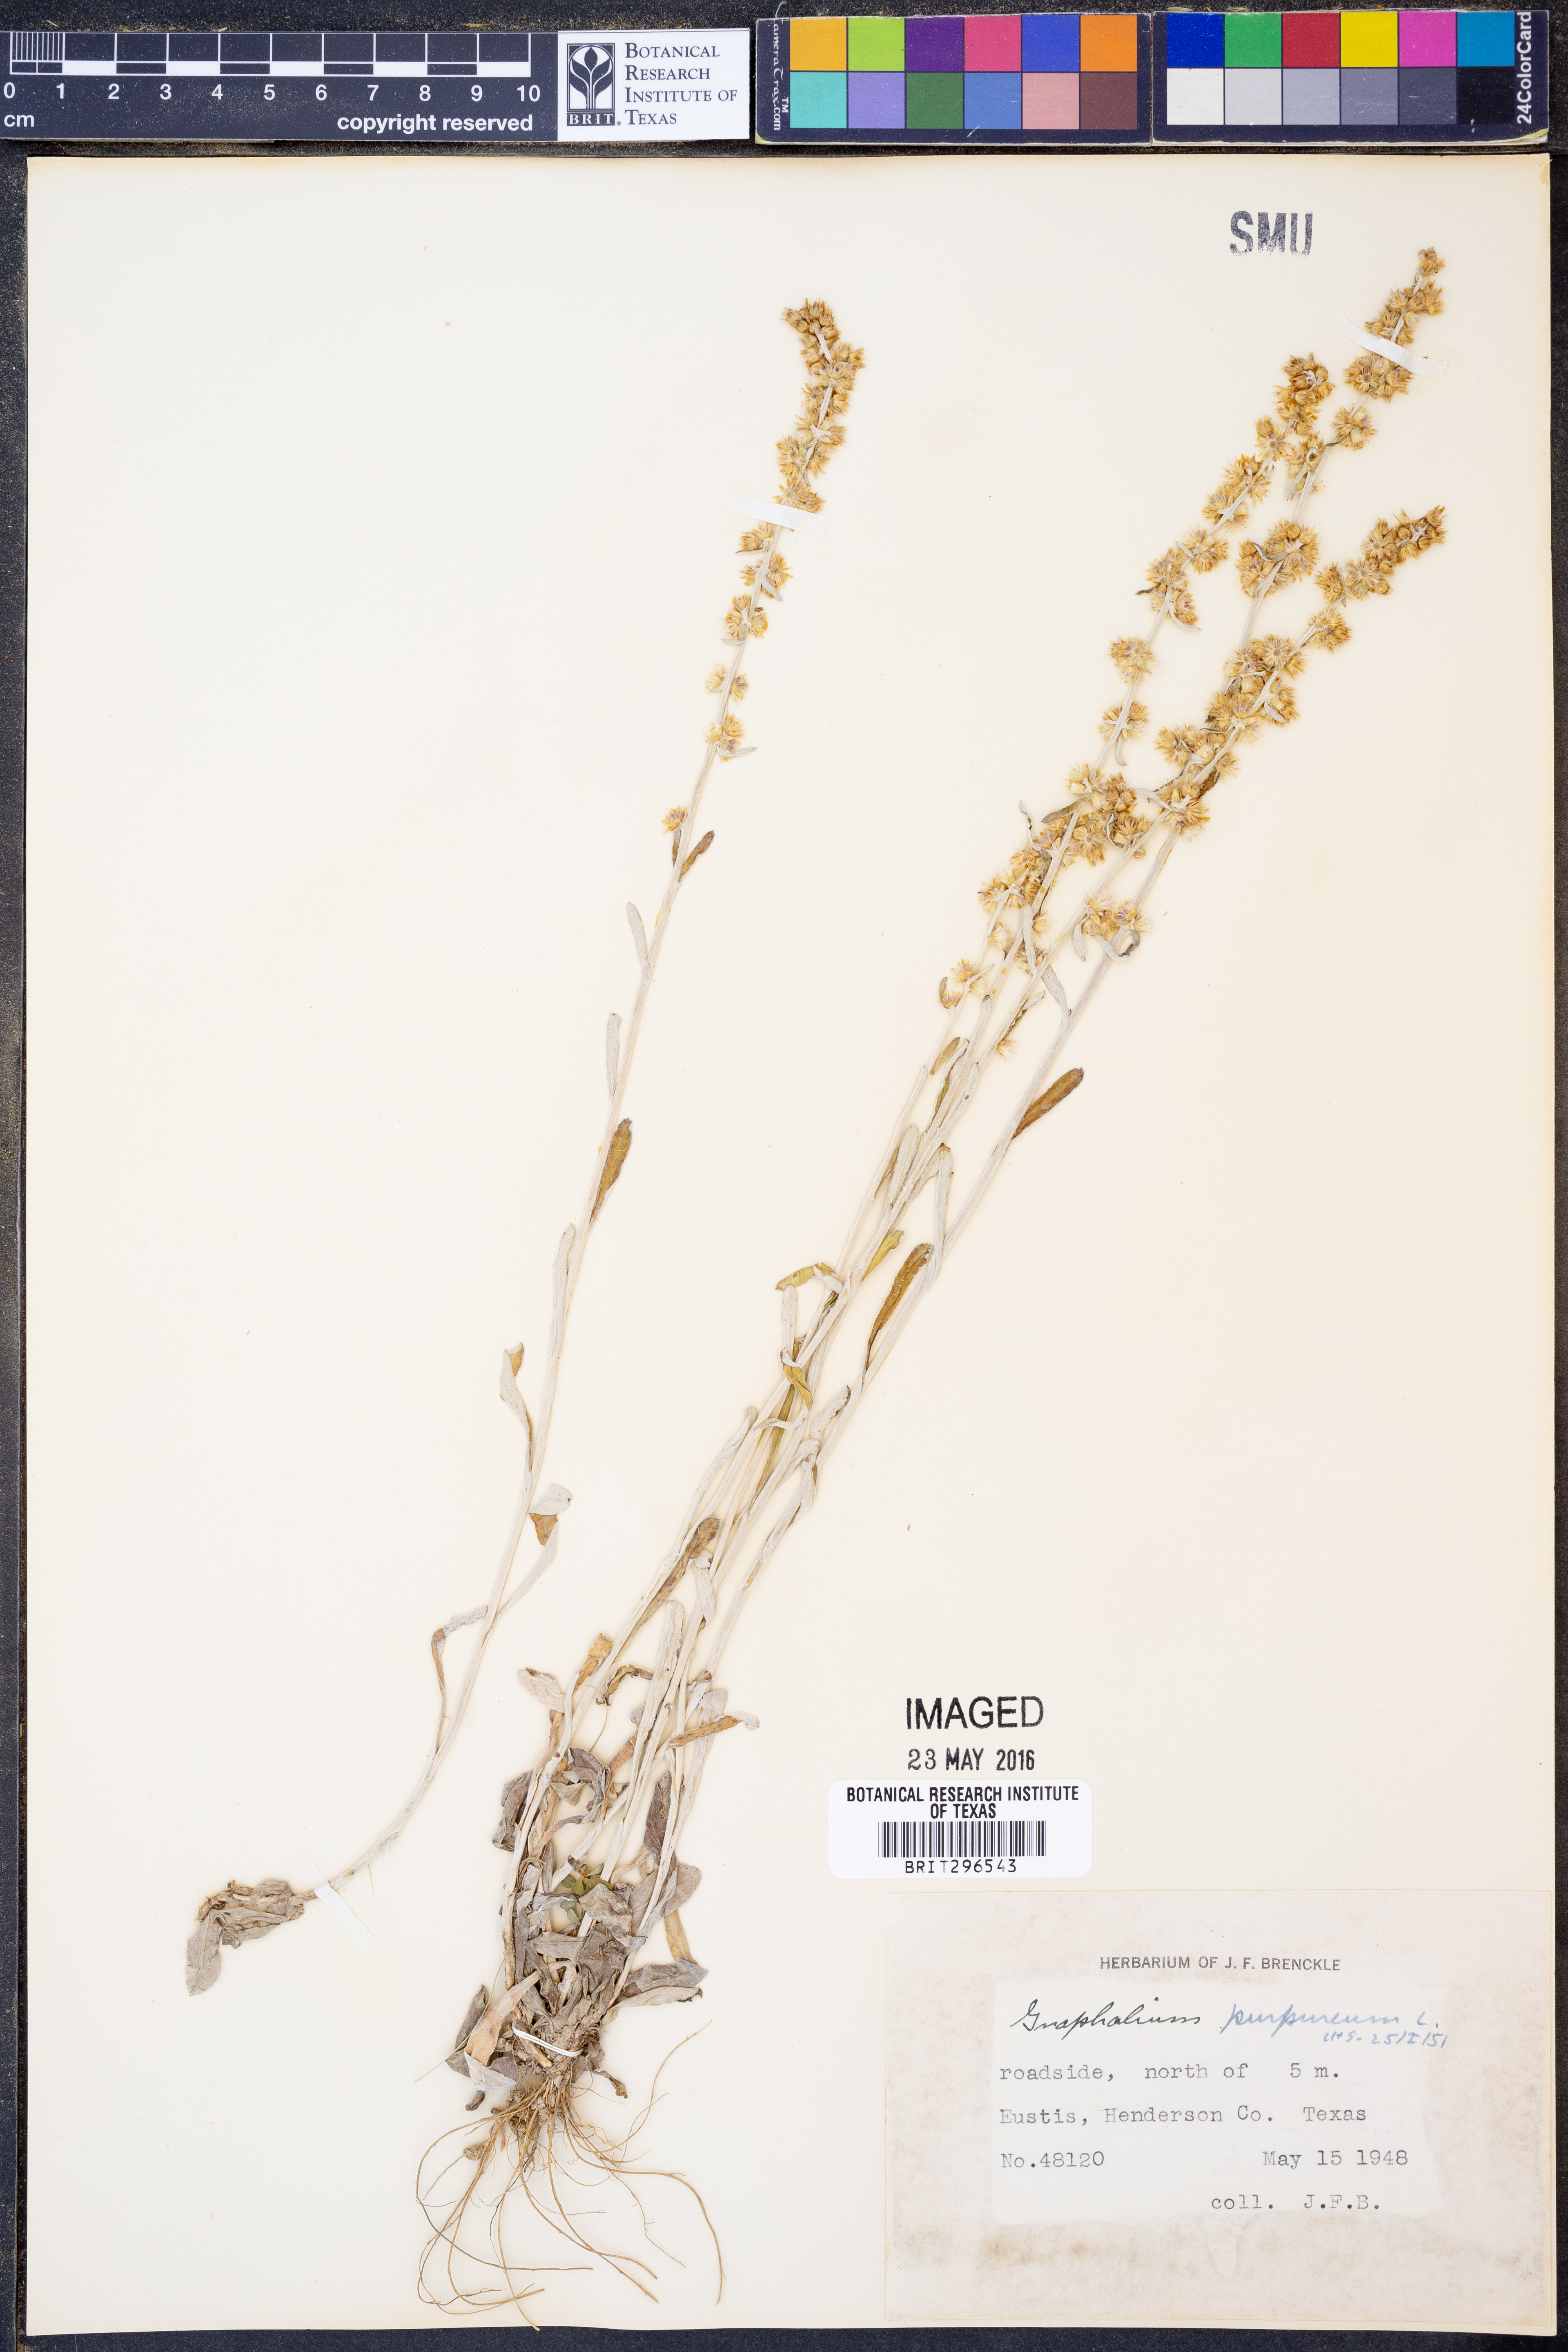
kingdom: Plantae
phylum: Tracheophyta
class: Magnoliopsida
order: Asterales
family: Asteraceae
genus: Gamochaeta
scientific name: Gamochaeta purpurea
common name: Purple cudweed
